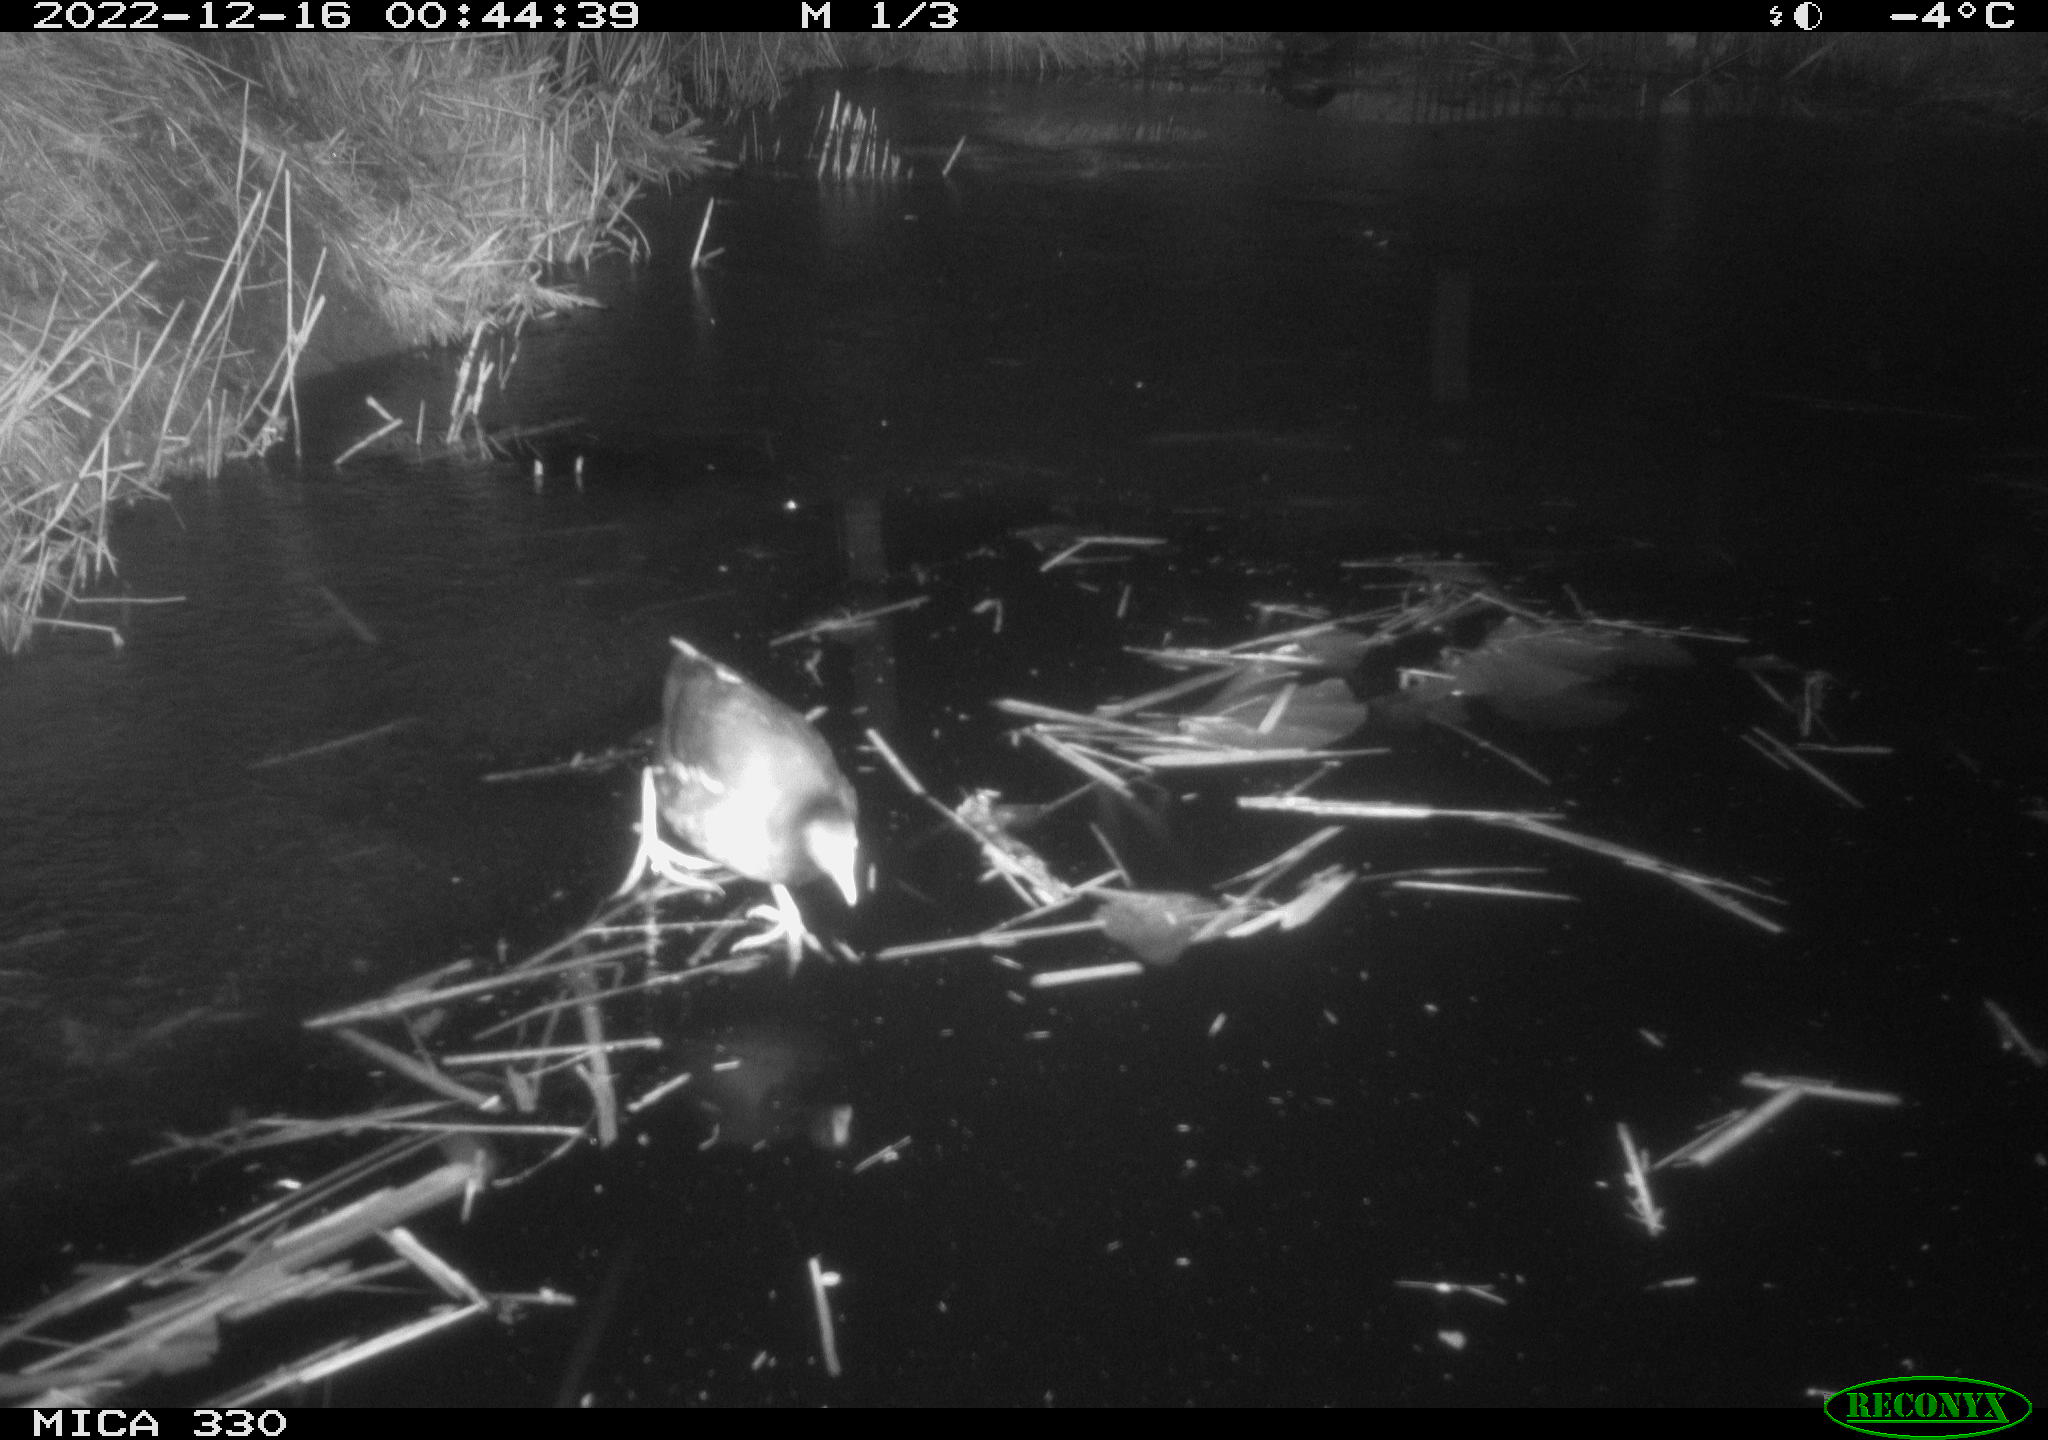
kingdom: Animalia
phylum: Chordata
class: Aves
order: Gruiformes
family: Rallidae
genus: Gallinula
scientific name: Gallinula chloropus
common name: Common moorhen
